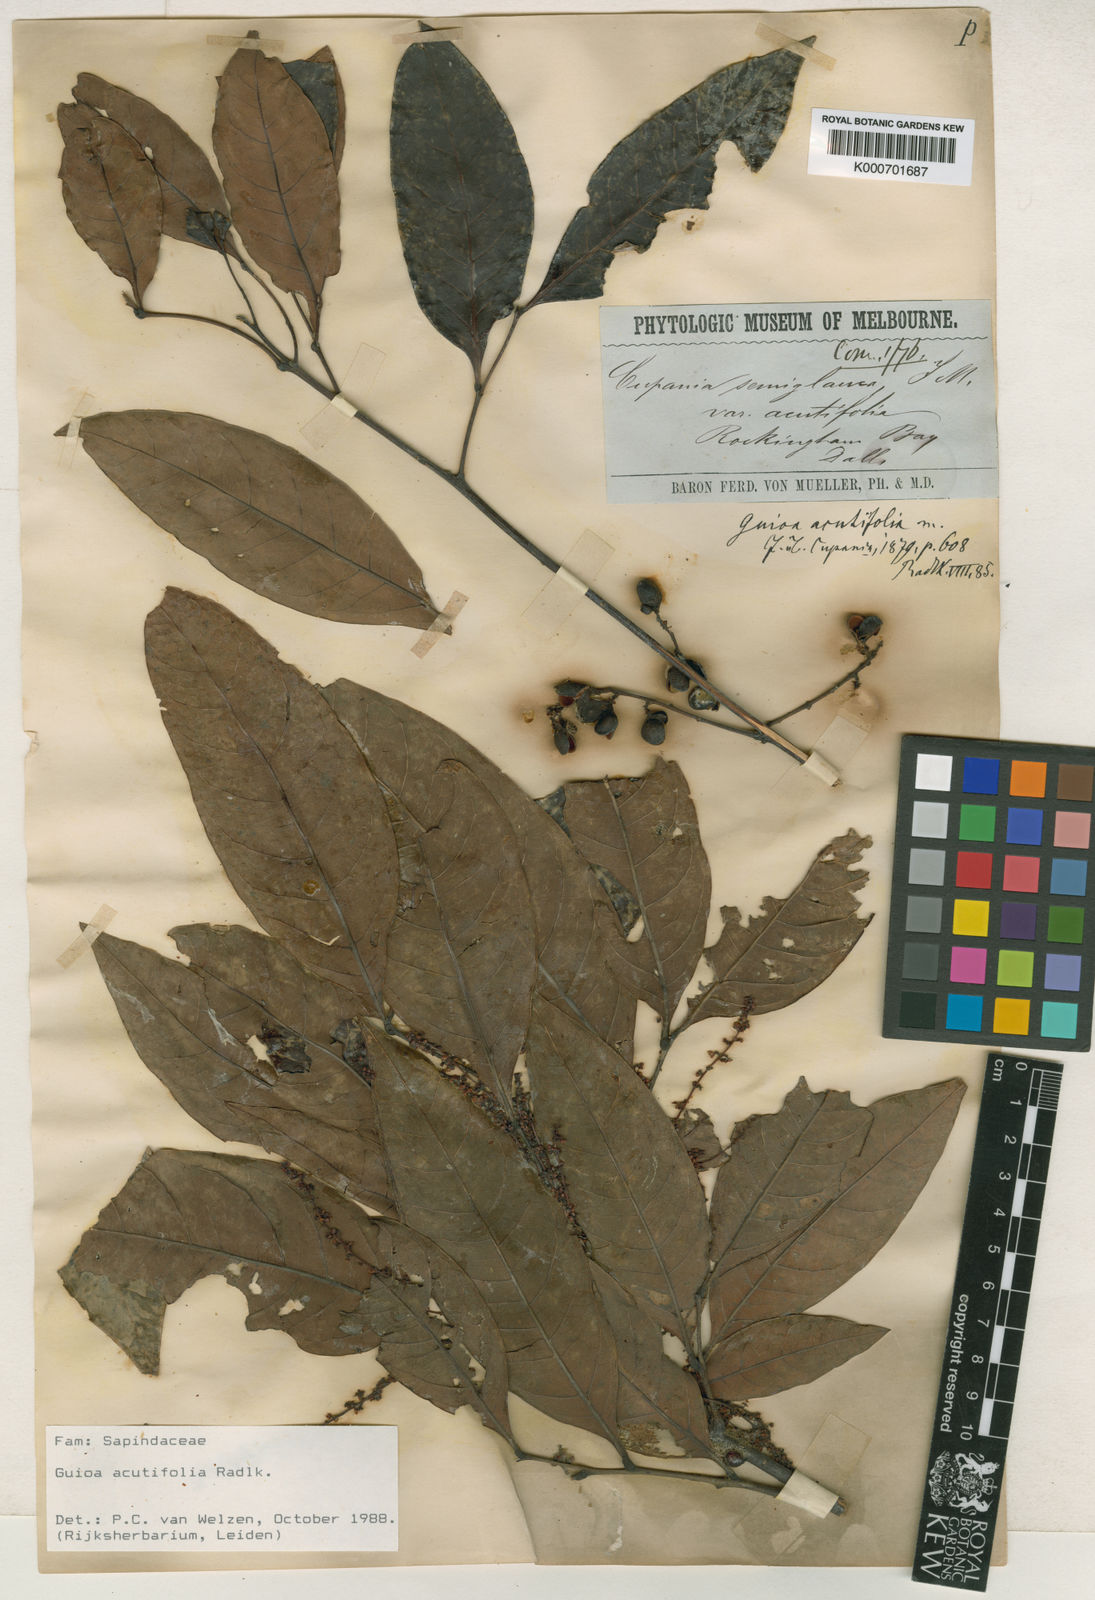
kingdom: Plantae
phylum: Tracheophyta
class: Magnoliopsida
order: Sapindales
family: Sapindaceae
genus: Guioa
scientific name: Guioa acutifolia
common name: Northern guioa
